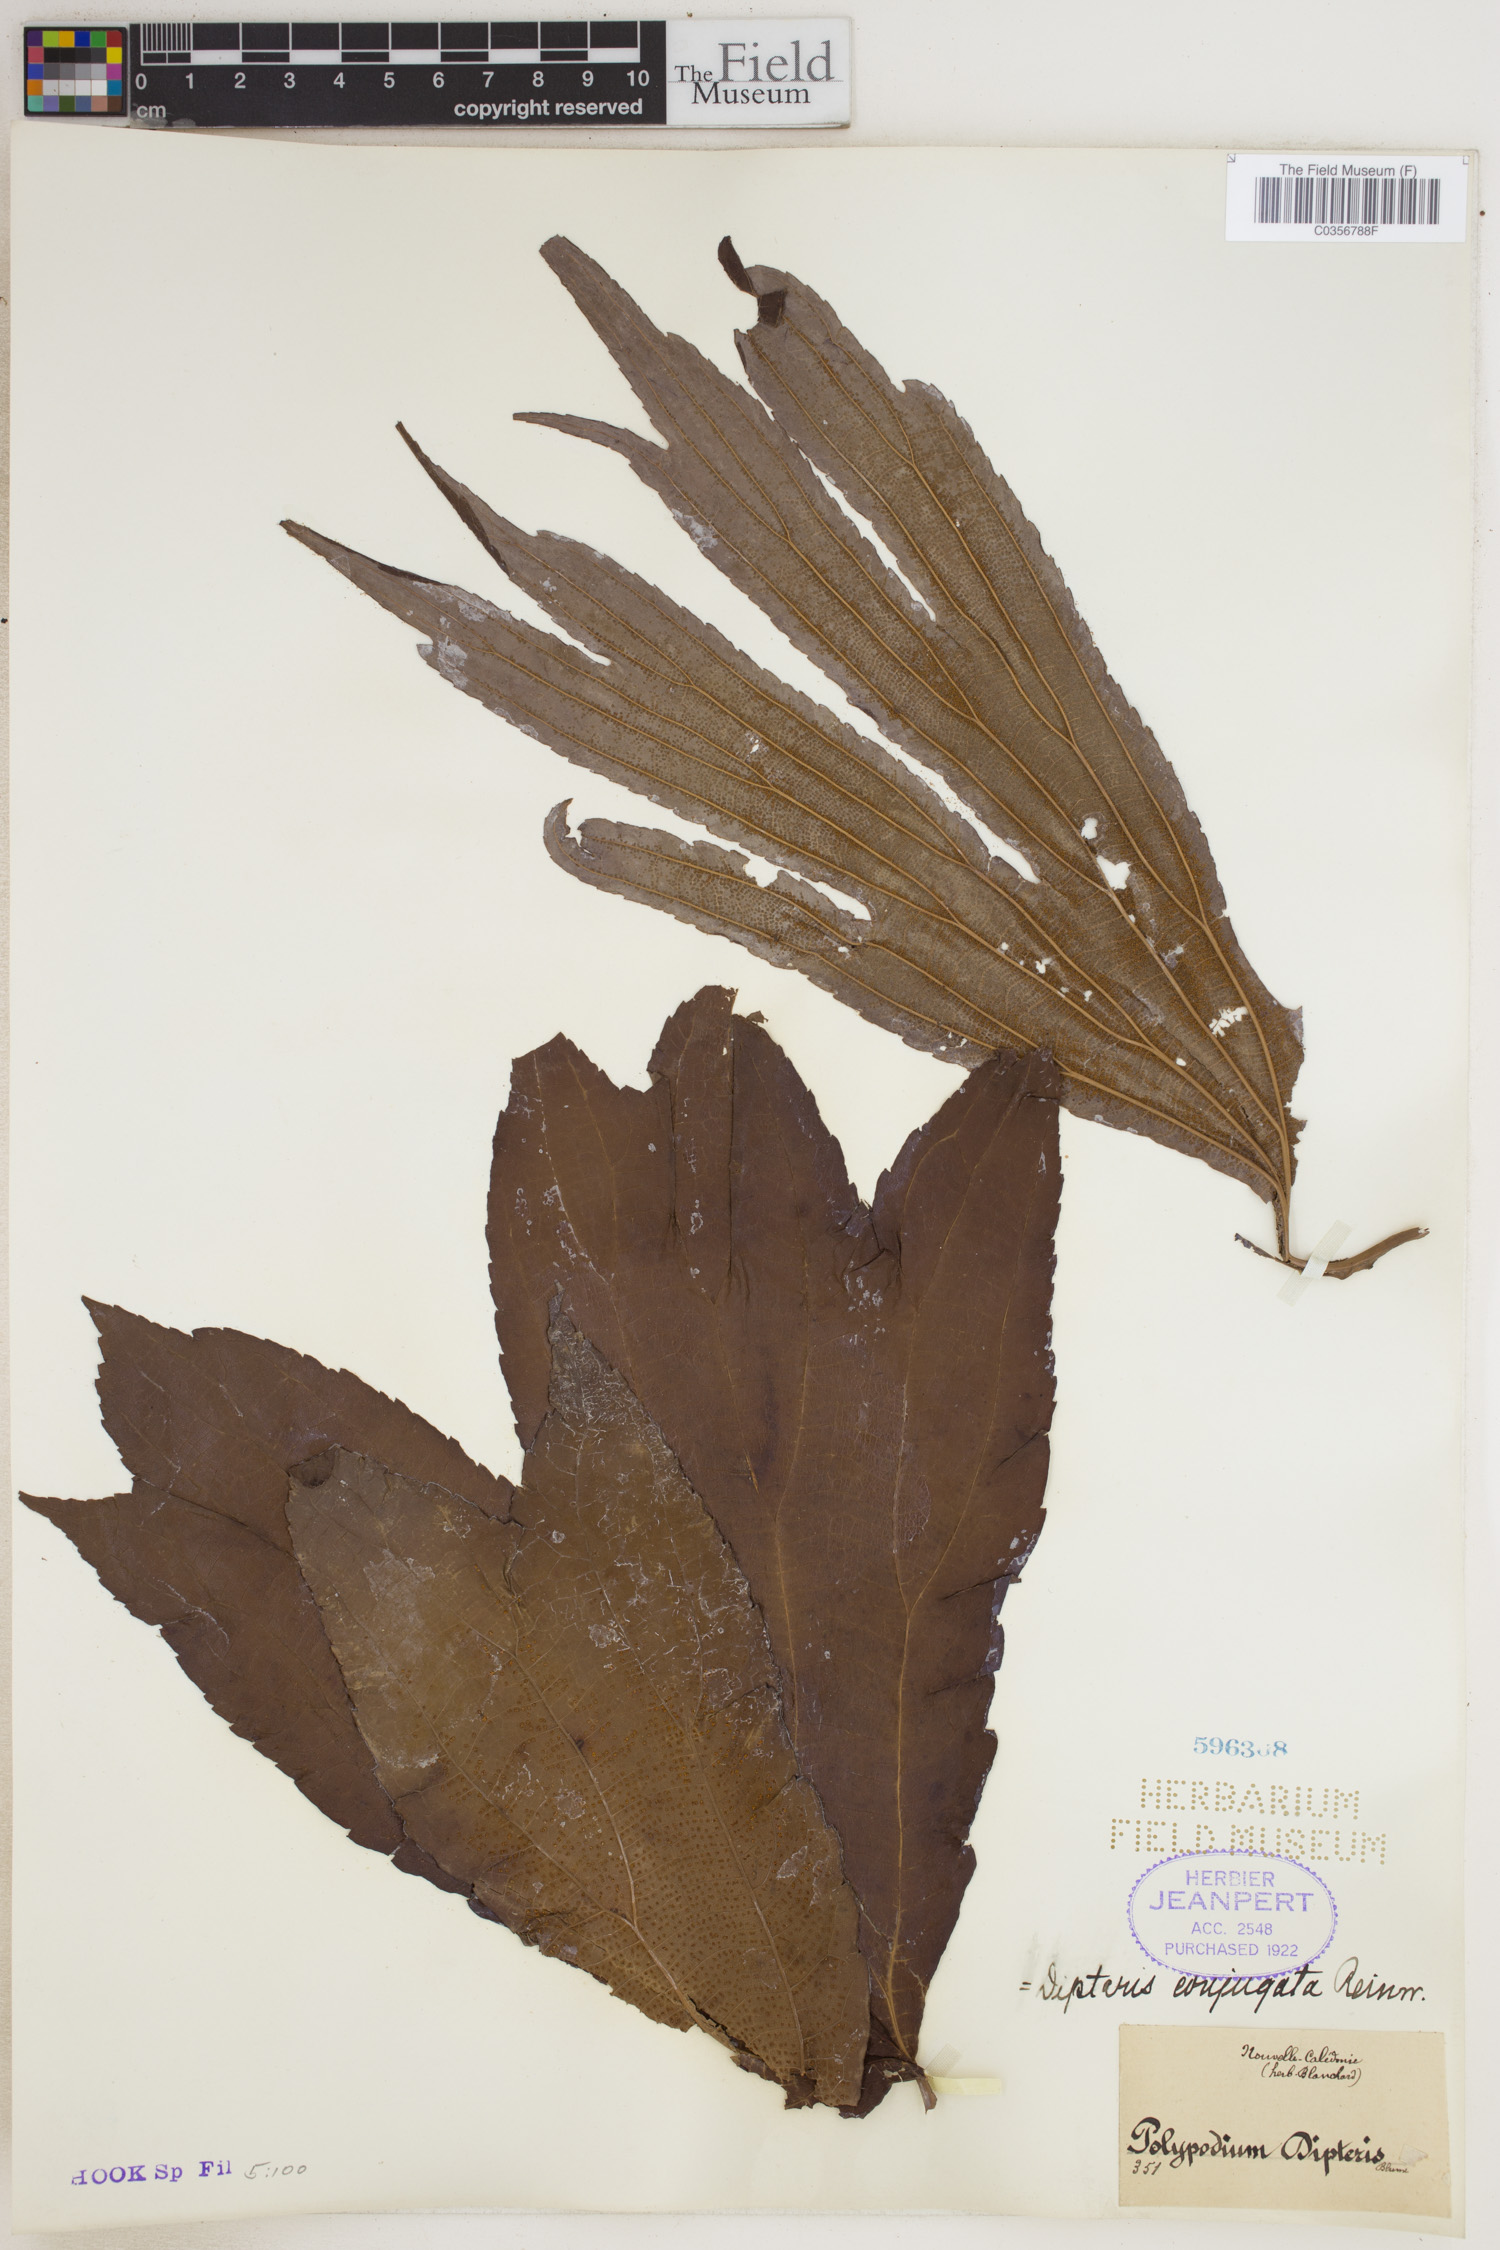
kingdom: Plantae
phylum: Tracheophyta
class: Polypodiopsida
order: Gleicheniales
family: Dipteridaceae
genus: Dipteris
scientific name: Dipteris conjugata
